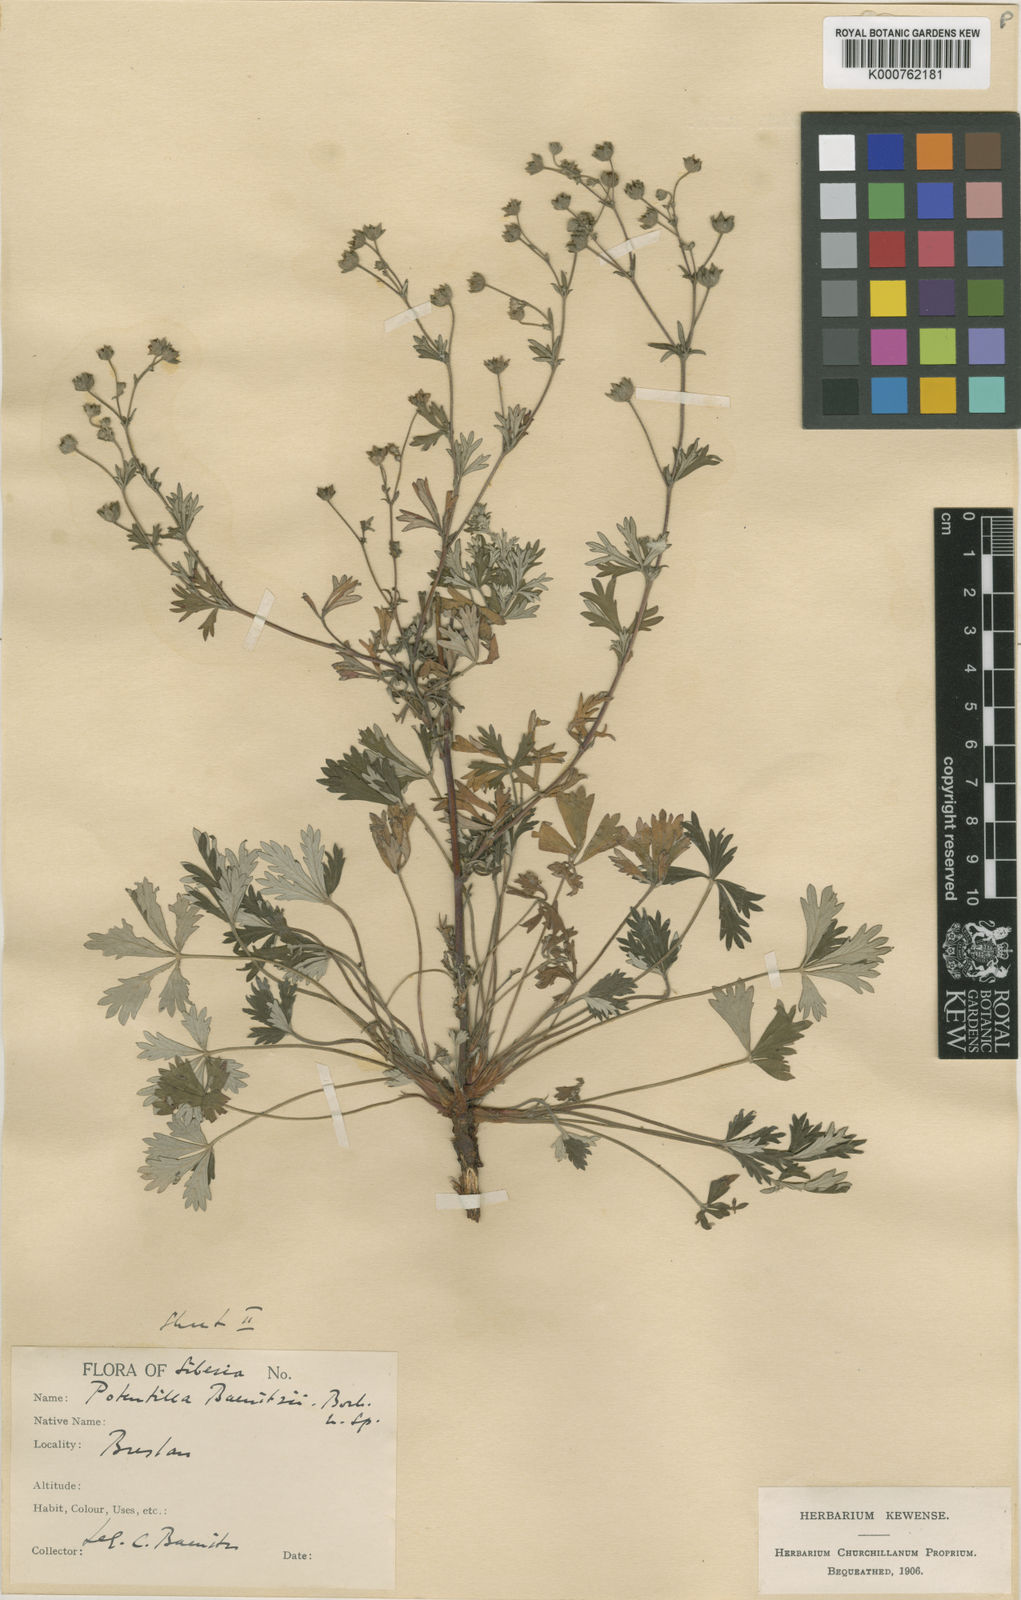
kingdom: Plantae
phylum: Tracheophyta
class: Magnoliopsida
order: Rosales
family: Rosaceae
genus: Potentilla
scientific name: Potentilla argentea
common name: Hoary cinquefoil
